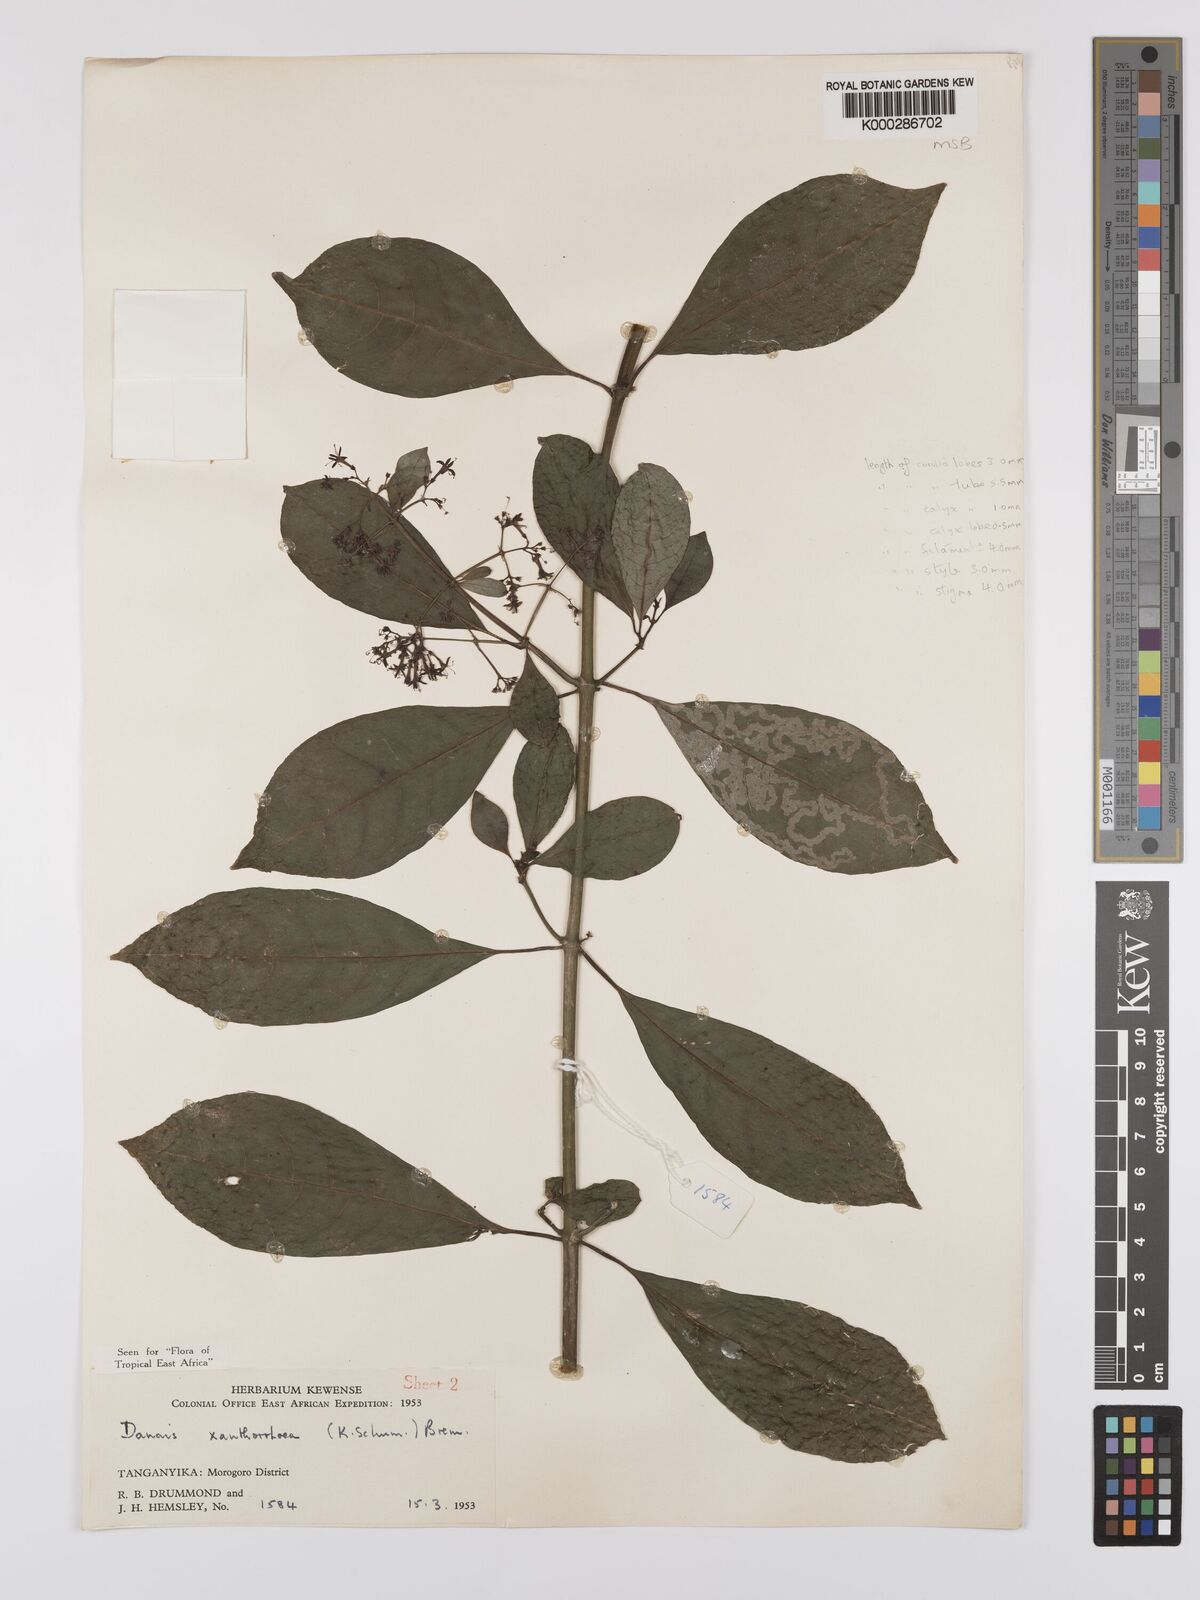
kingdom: Plantae
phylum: Tracheophyta
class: Magnoliopsida
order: Gentianales
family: Rubiaceae
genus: Danais
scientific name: Danais xanthorrhoea
